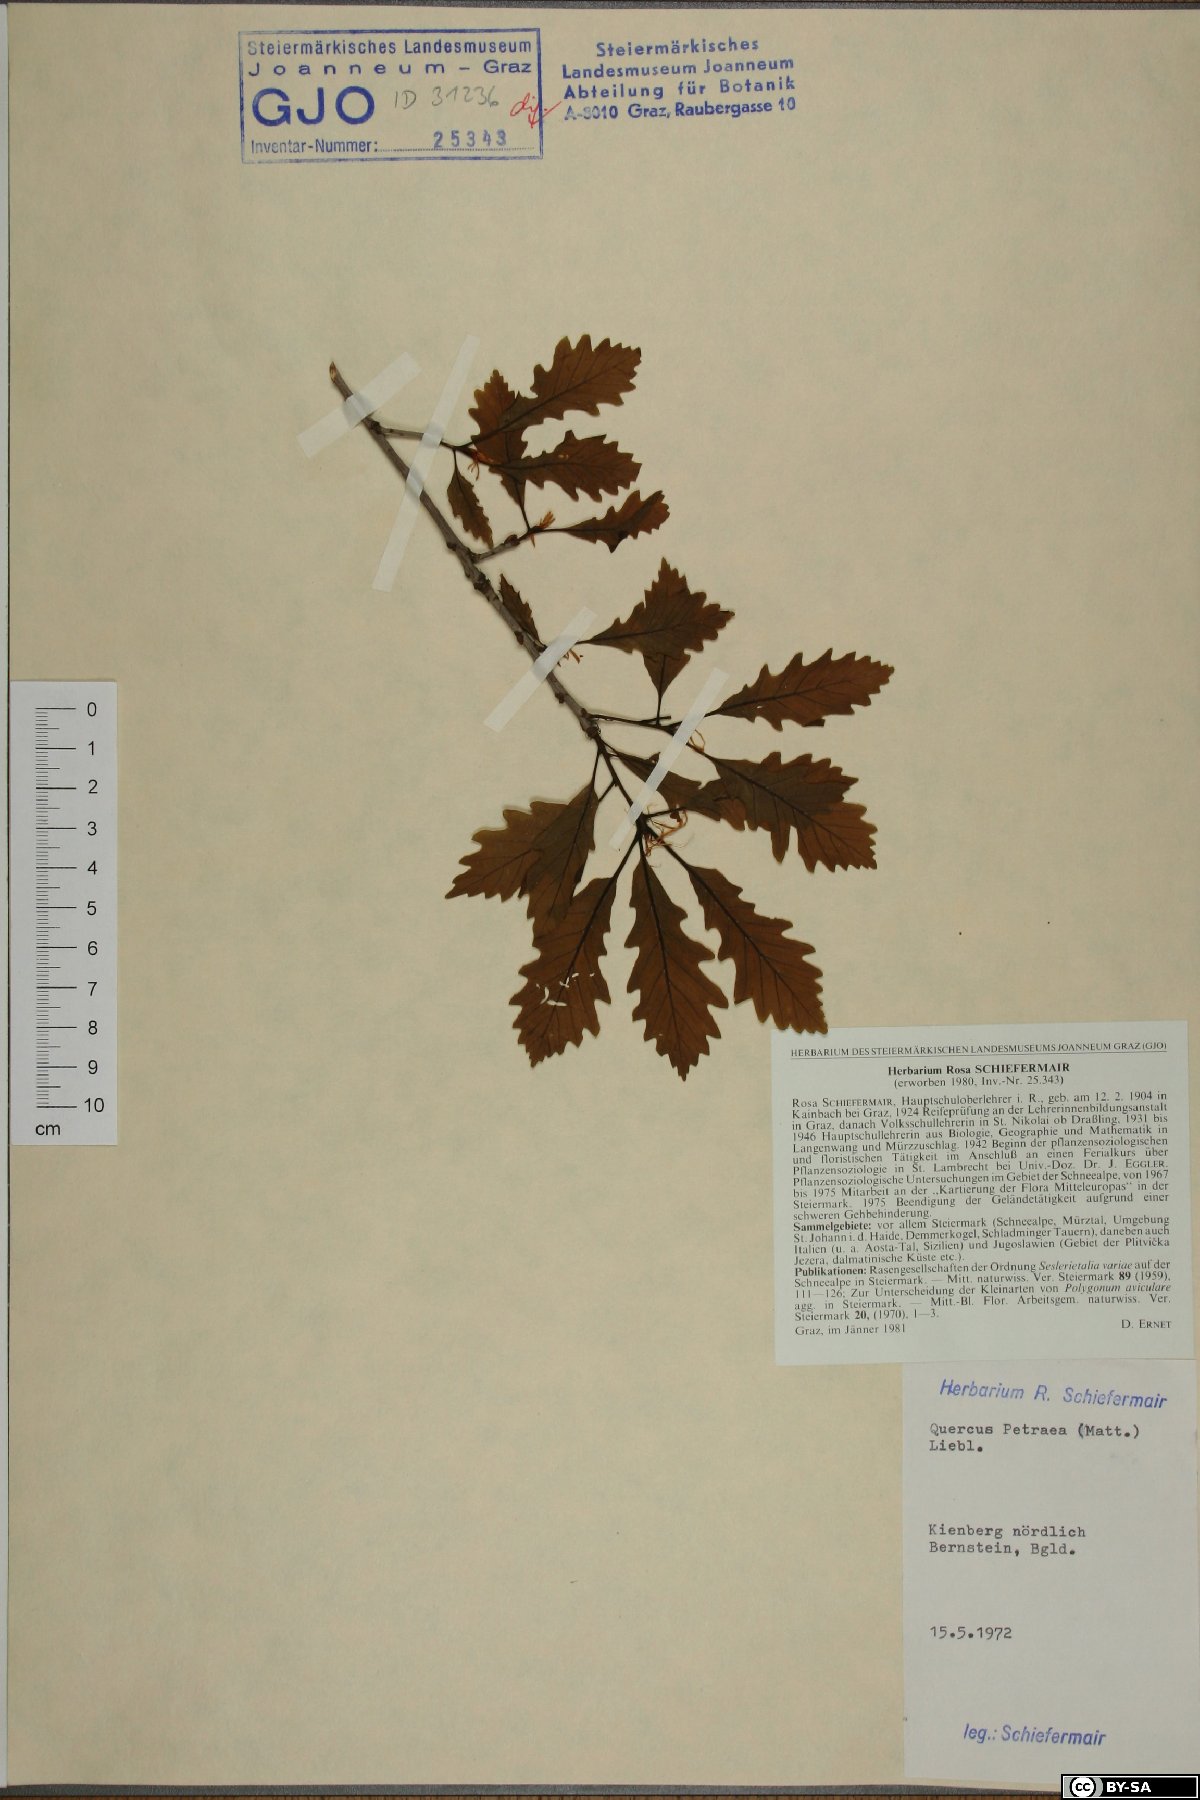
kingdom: Plantae
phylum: Tracheophyta
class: Magnoliopsida
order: Fagales
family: Fagaceae
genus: Quercus
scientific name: Quercus petraea
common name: Sessile oak
